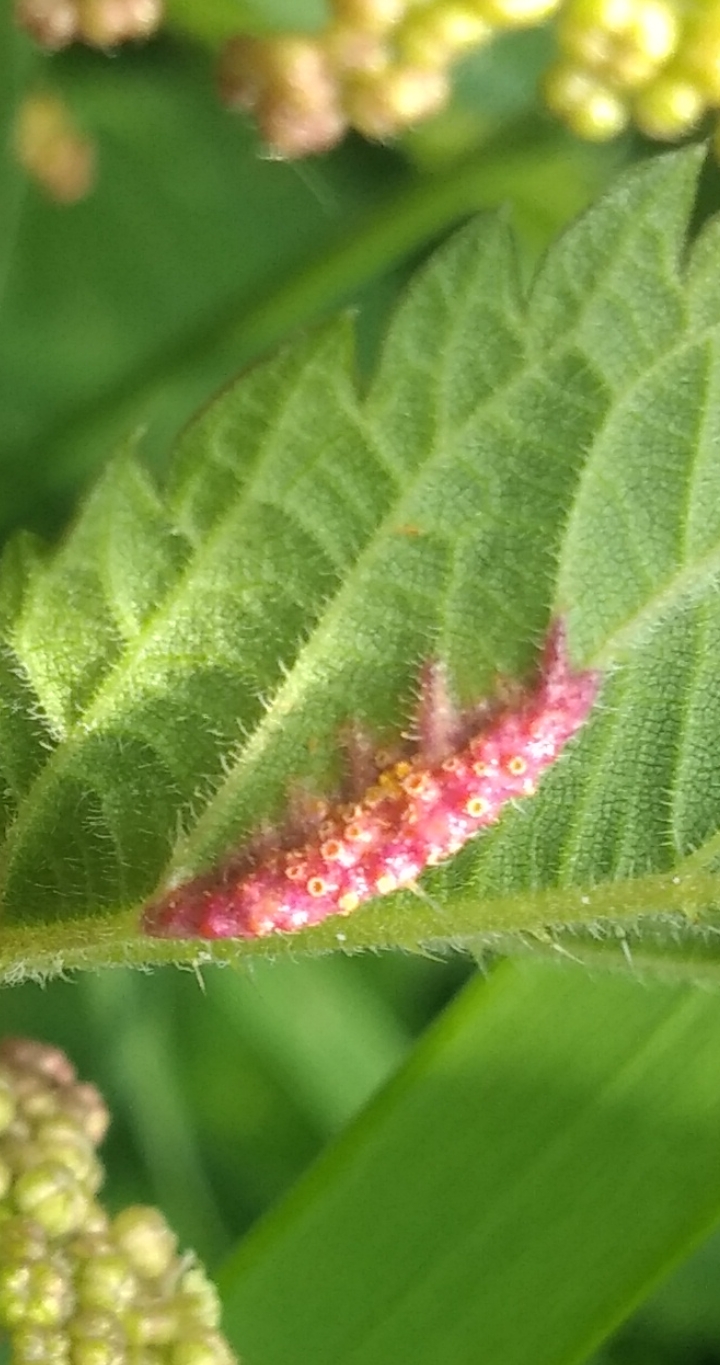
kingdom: Fungi
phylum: Basidiomycota
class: Pucciniomycetes
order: Pucciniales
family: Pucciniaceae
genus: Puccinia
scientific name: Puccinia urticata
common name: nældegalle-tvecellerust
